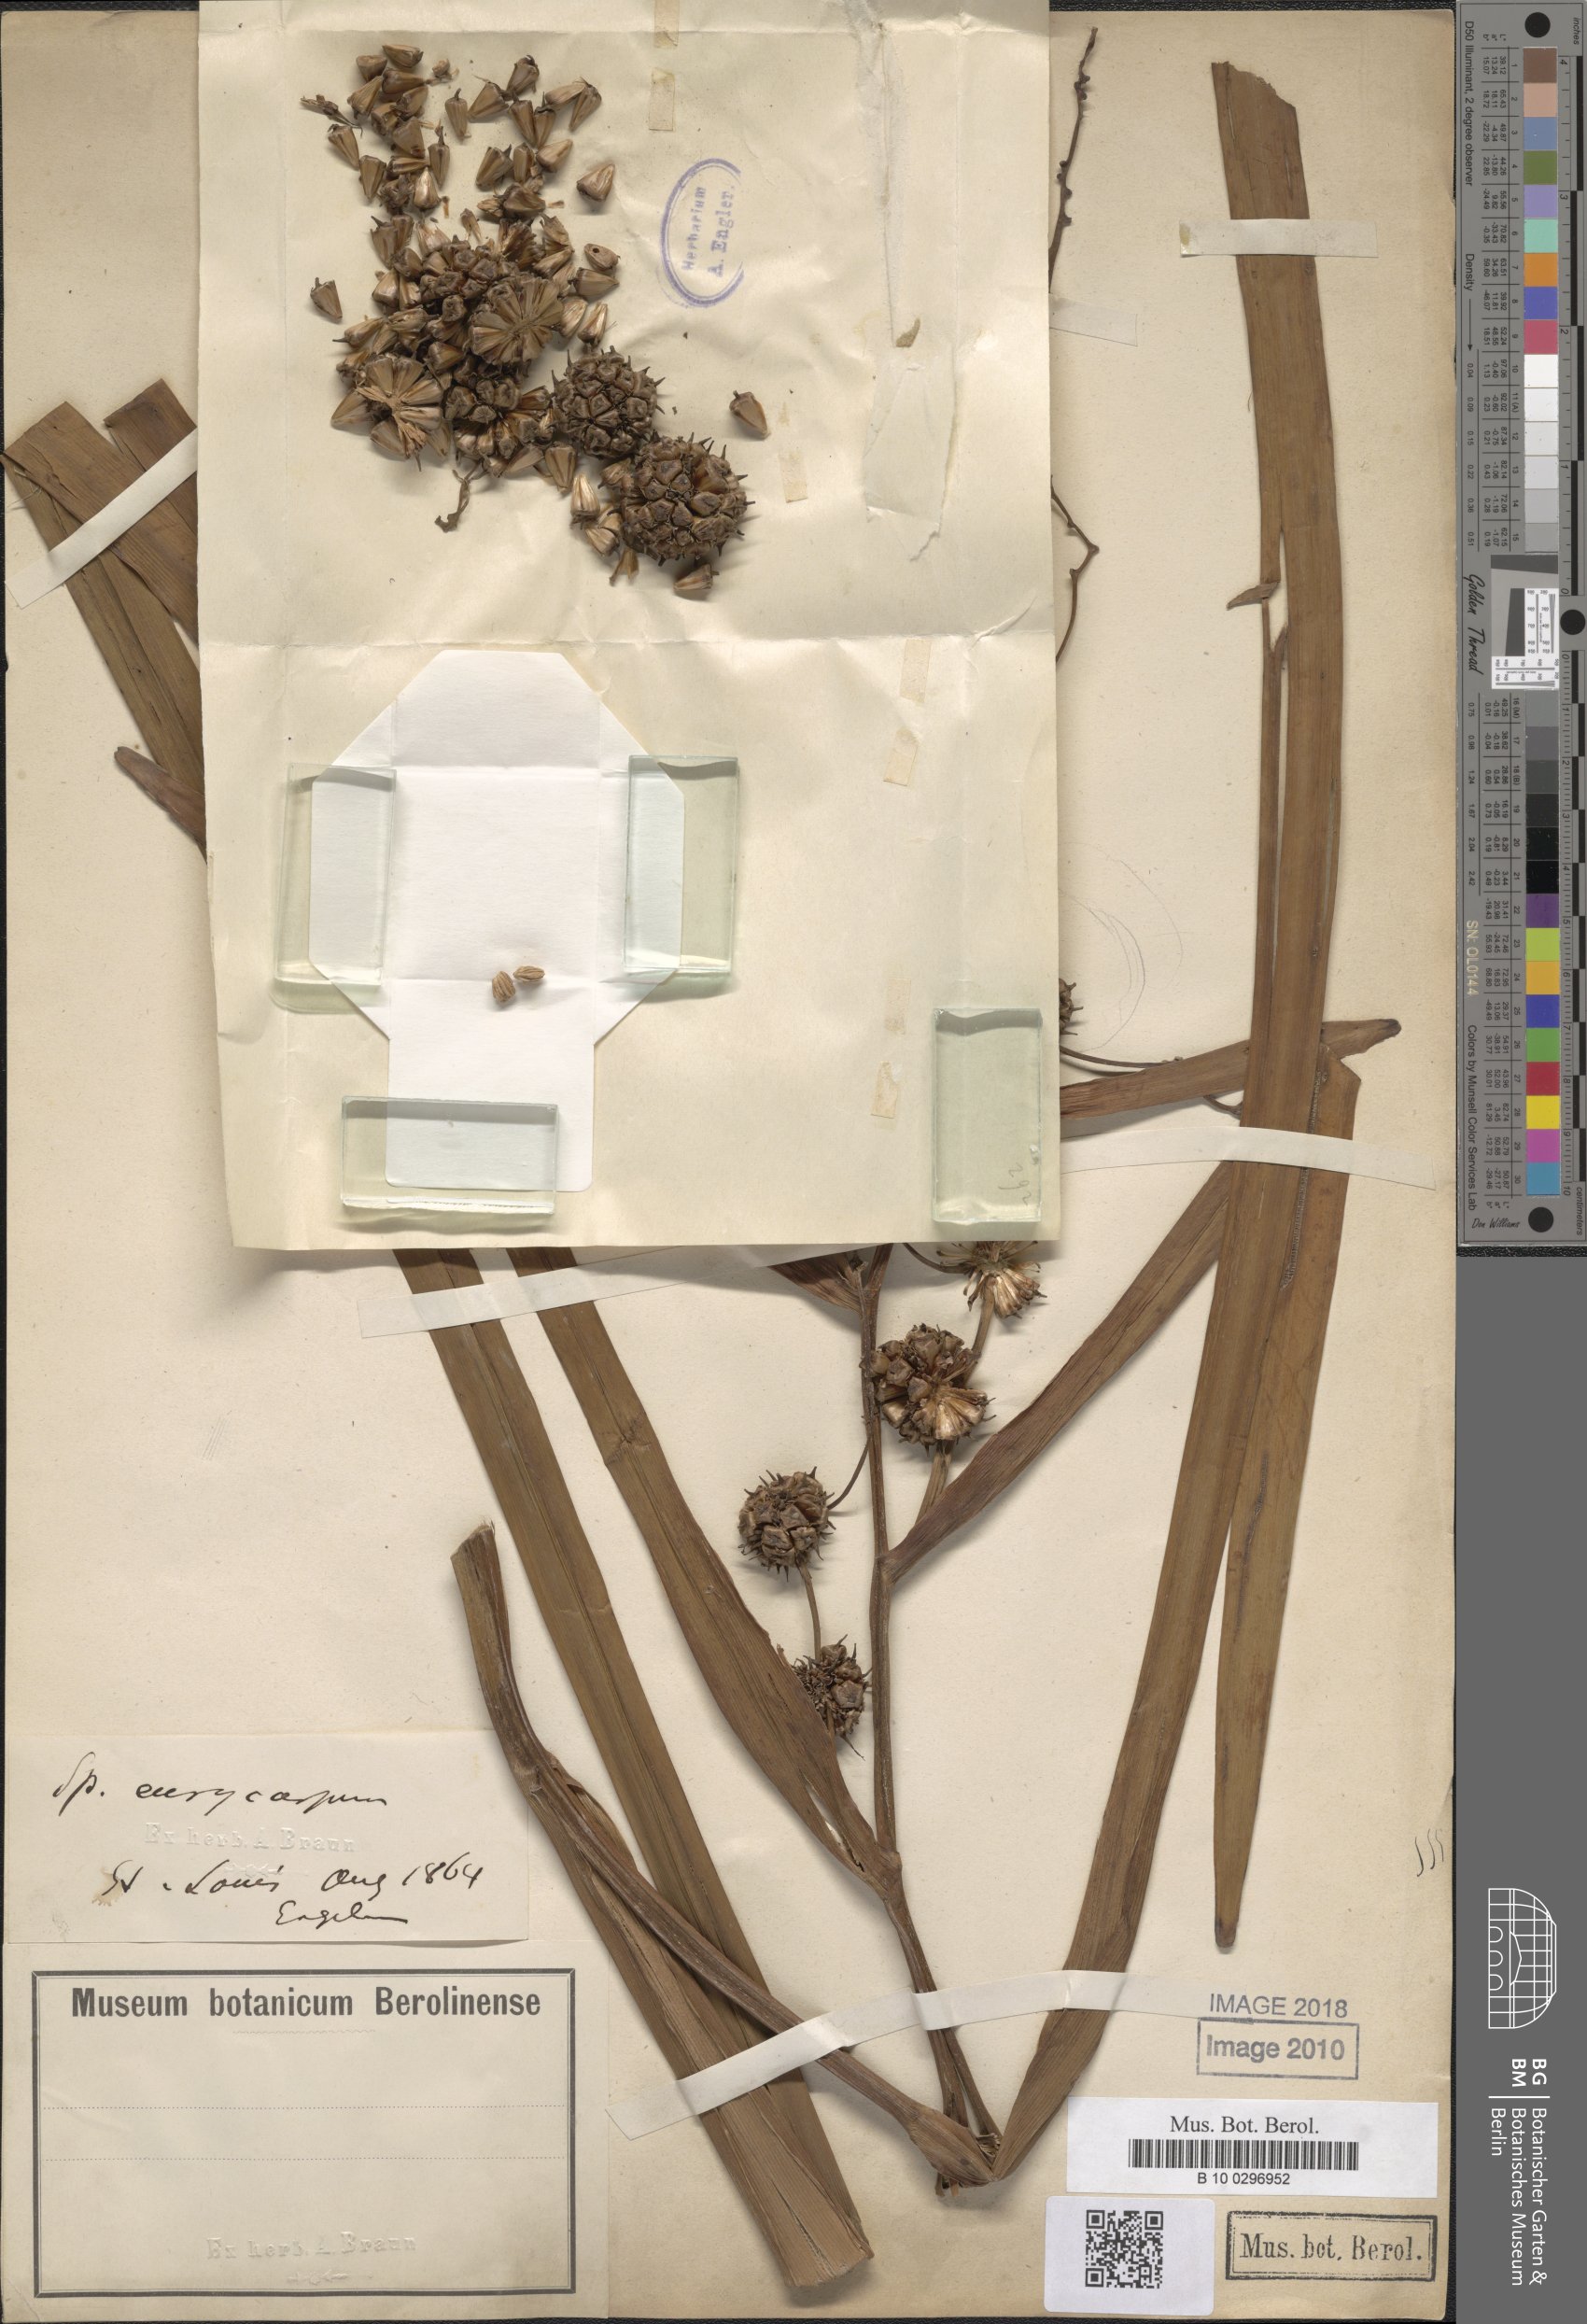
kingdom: Plantae
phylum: Tracheophyta
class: Liliopsida
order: Poales
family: Typhaceae
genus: Sparganium
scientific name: Sparganium eurycarpum
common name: Broad-fruited burreed
